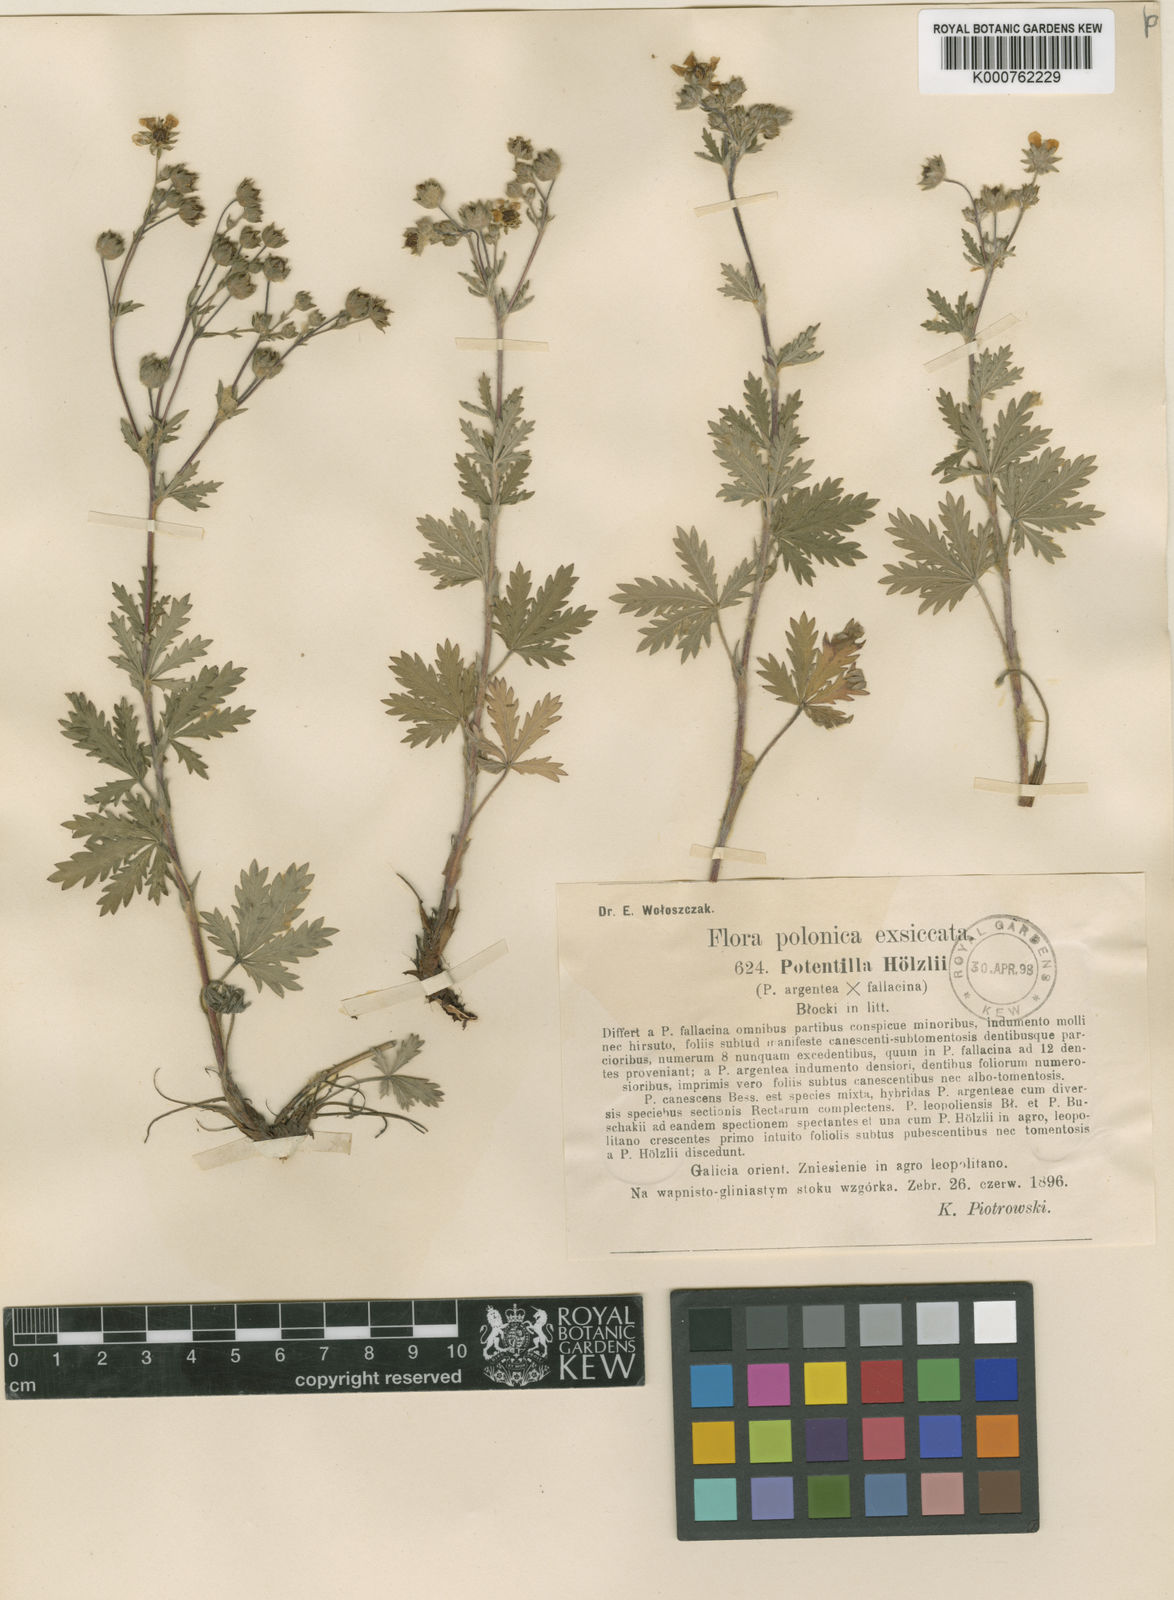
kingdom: Plantae
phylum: Tracheophyta
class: Magnoliopsida
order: Rosales
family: Rosaceae
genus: Potentilla
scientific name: Potentilla argentea
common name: Hoary cinquefoil
